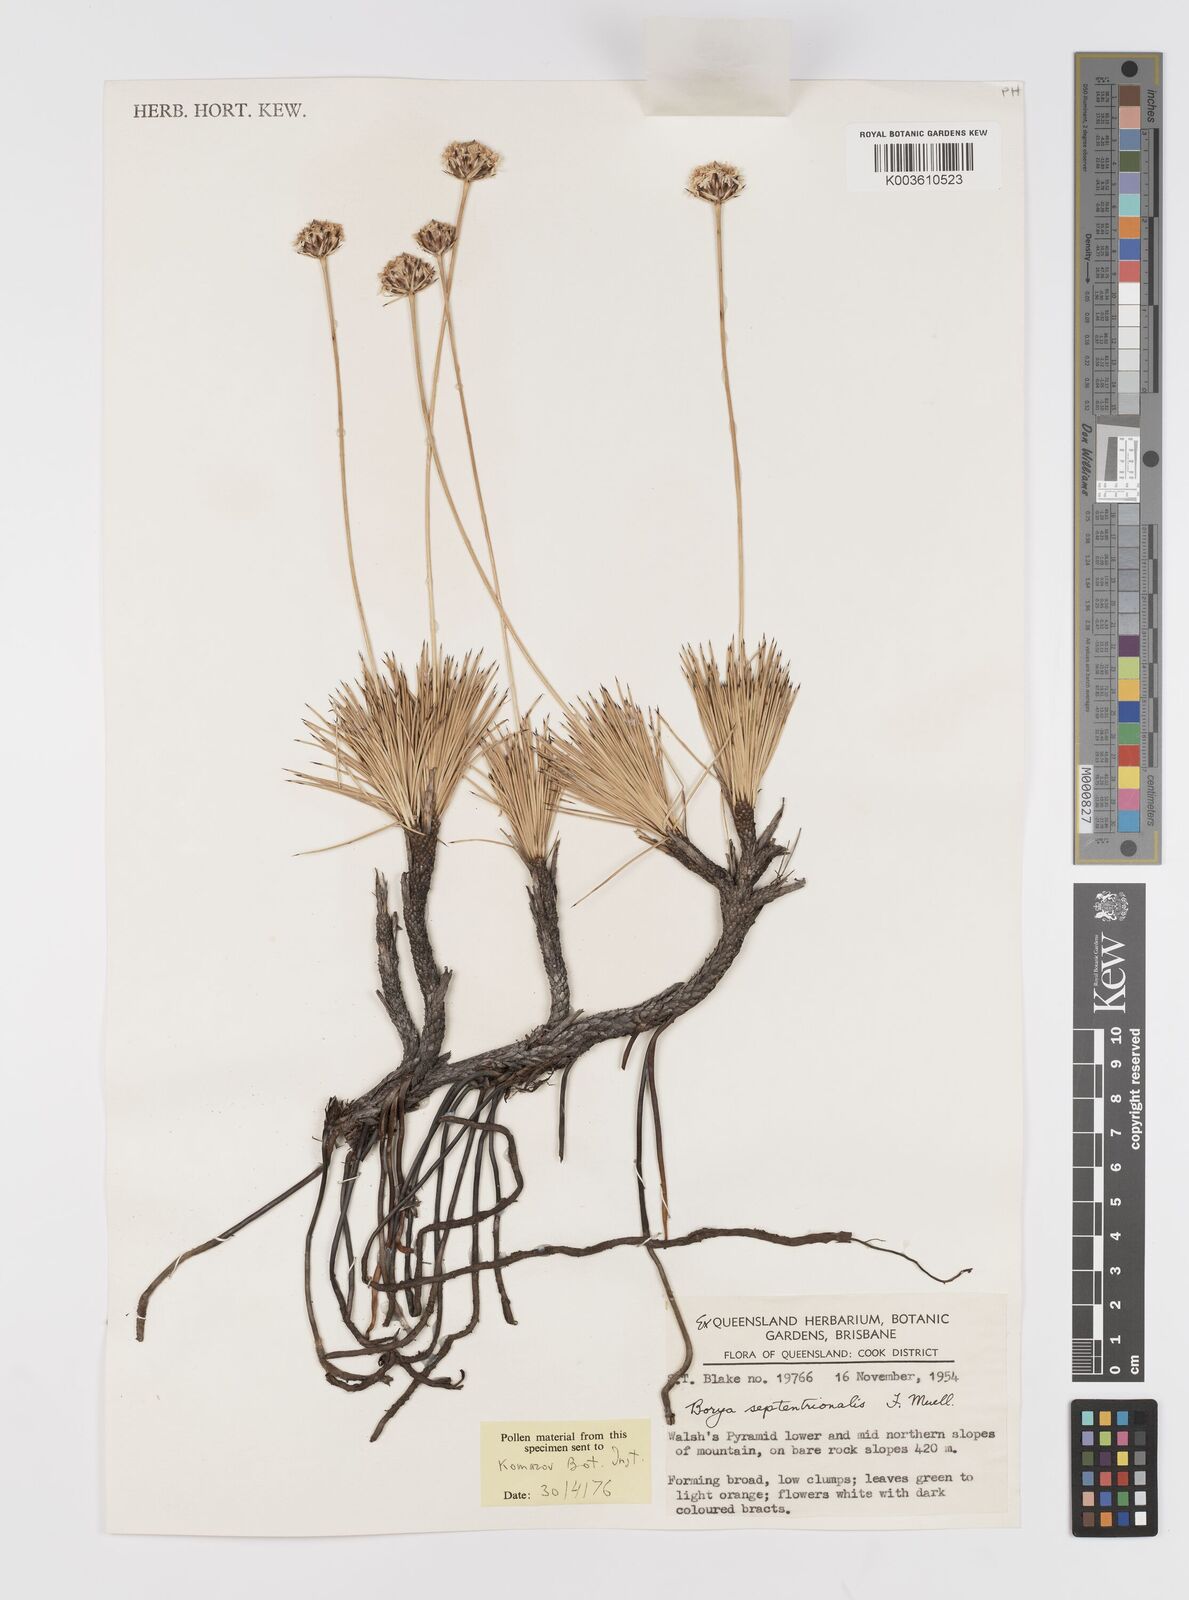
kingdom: Plantae
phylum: Tracheophyta
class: Liliopsida
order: Asparagales
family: Boryaceae
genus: Borya
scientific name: Borya septentrionalis
